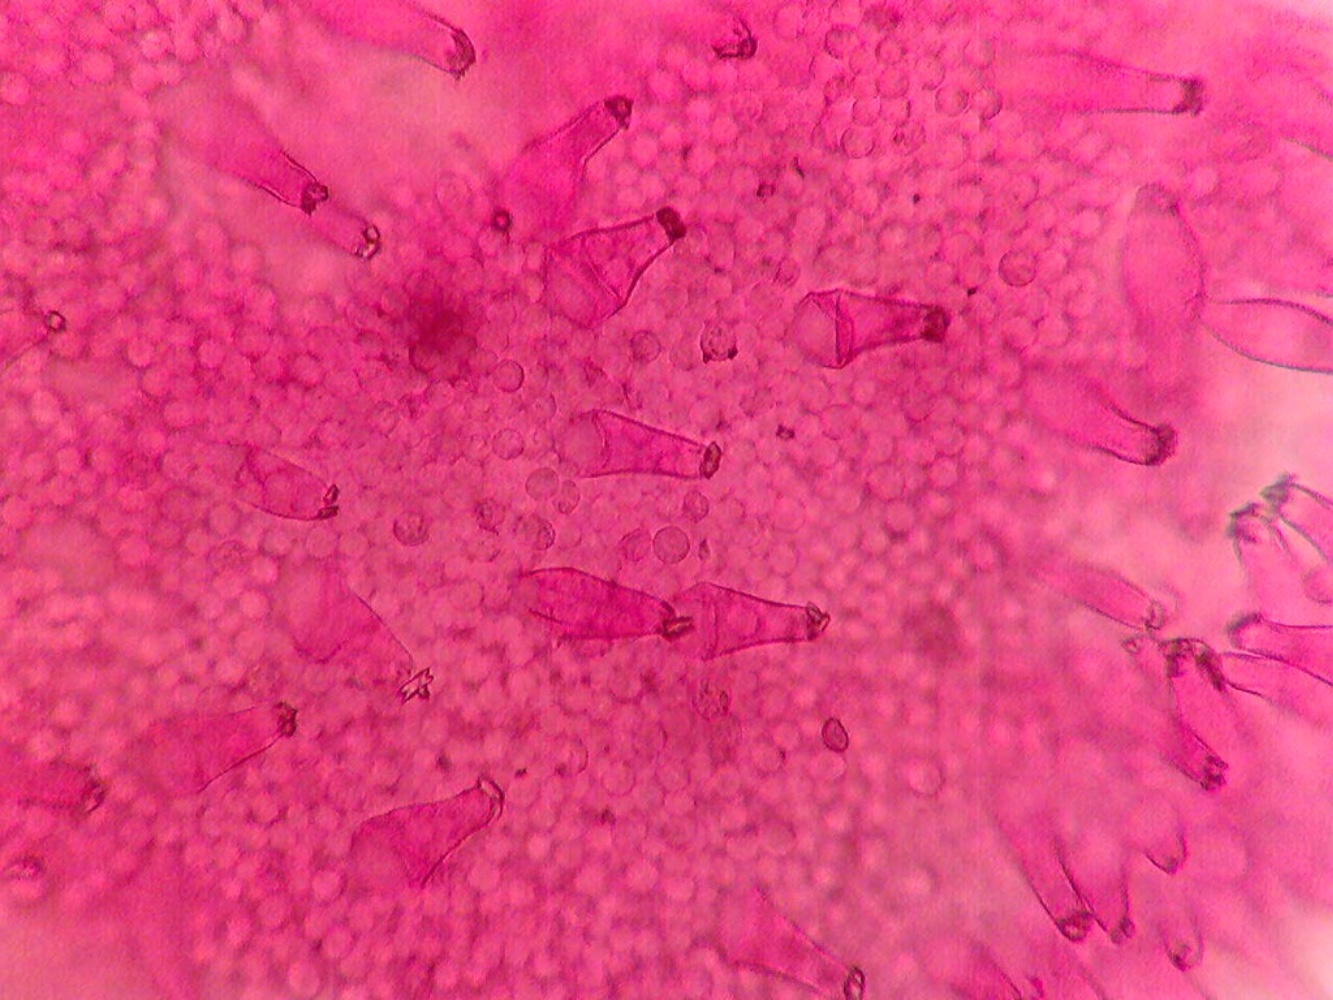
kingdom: Fungi
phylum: Basidiomycota
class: Agaricomycetes
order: Agaricales
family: Inocybaceae
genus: Inocybe
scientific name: Inocybe phaeoleuca
